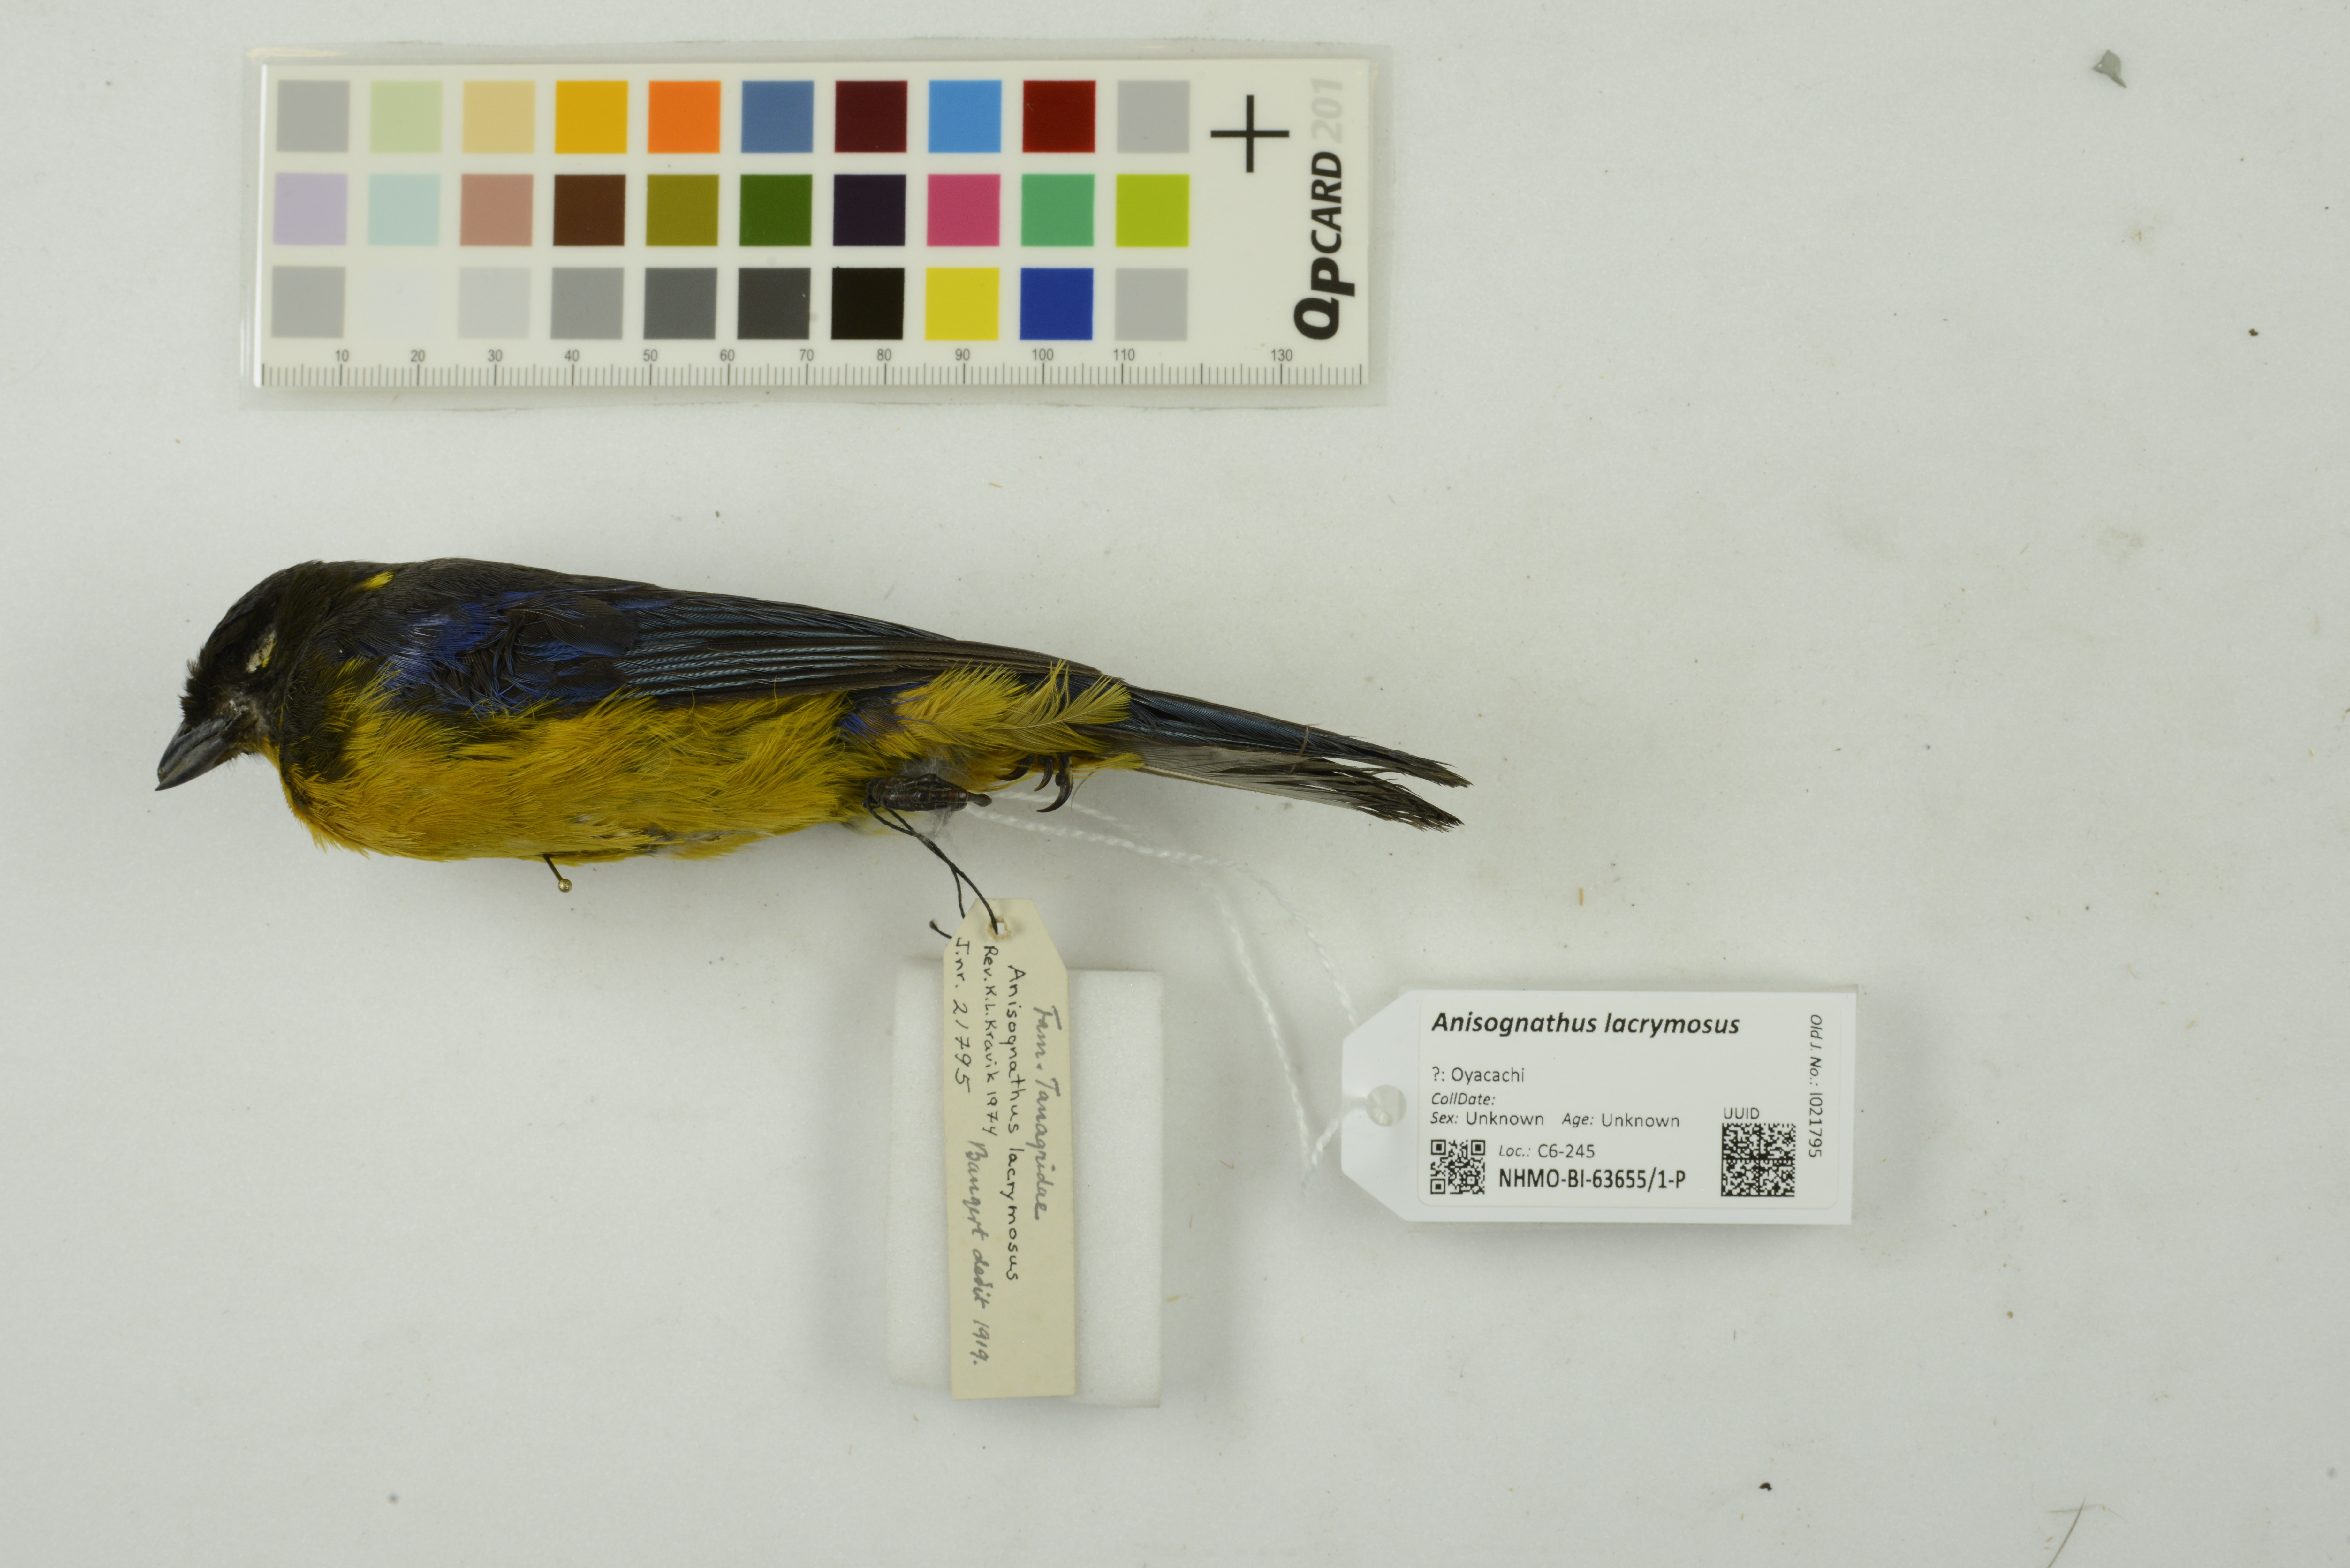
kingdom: Animalia
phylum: Chordata
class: Aves
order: Passeriformes
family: Thraupidae
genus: Anisognathus
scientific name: Anisognathus lacrymosus
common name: Lacrimose mountain-tanager
